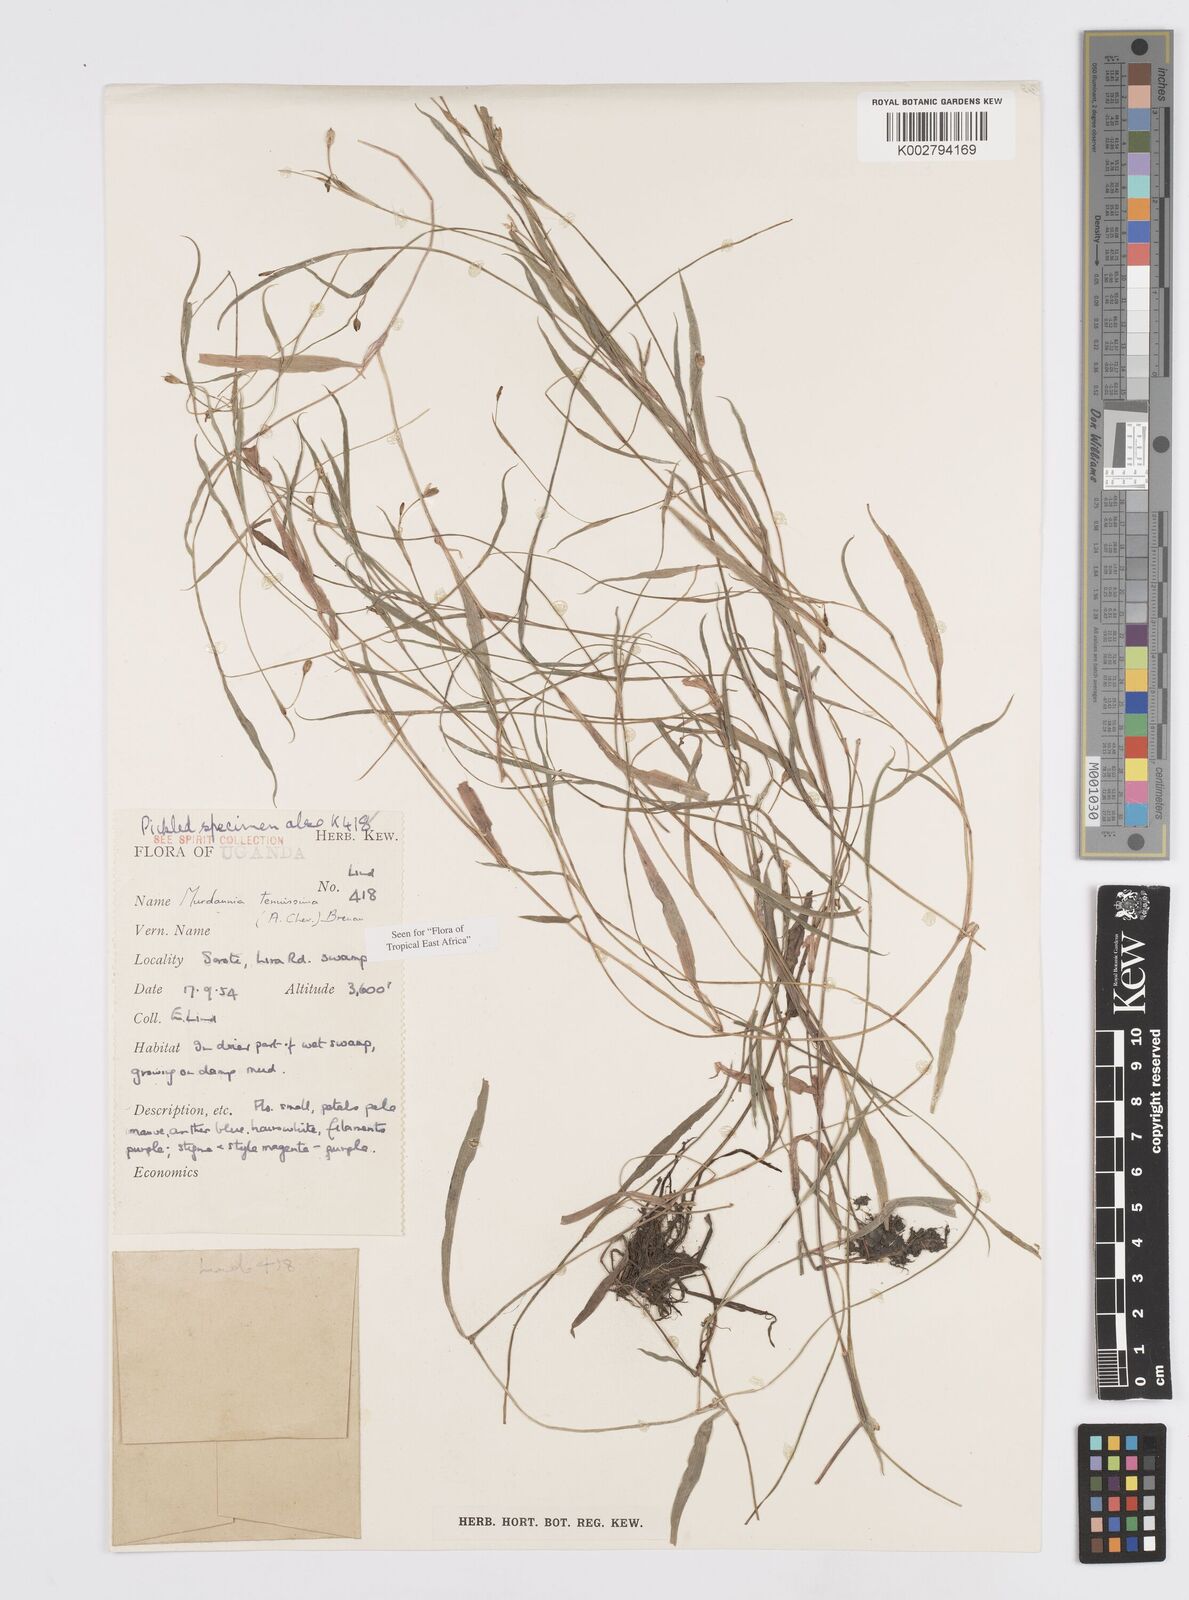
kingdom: Plantae
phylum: Tracheophyta
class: Liliopsida
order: Commelinales
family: Commelinaceae
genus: Murdannia
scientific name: Murdannia tenuissima
